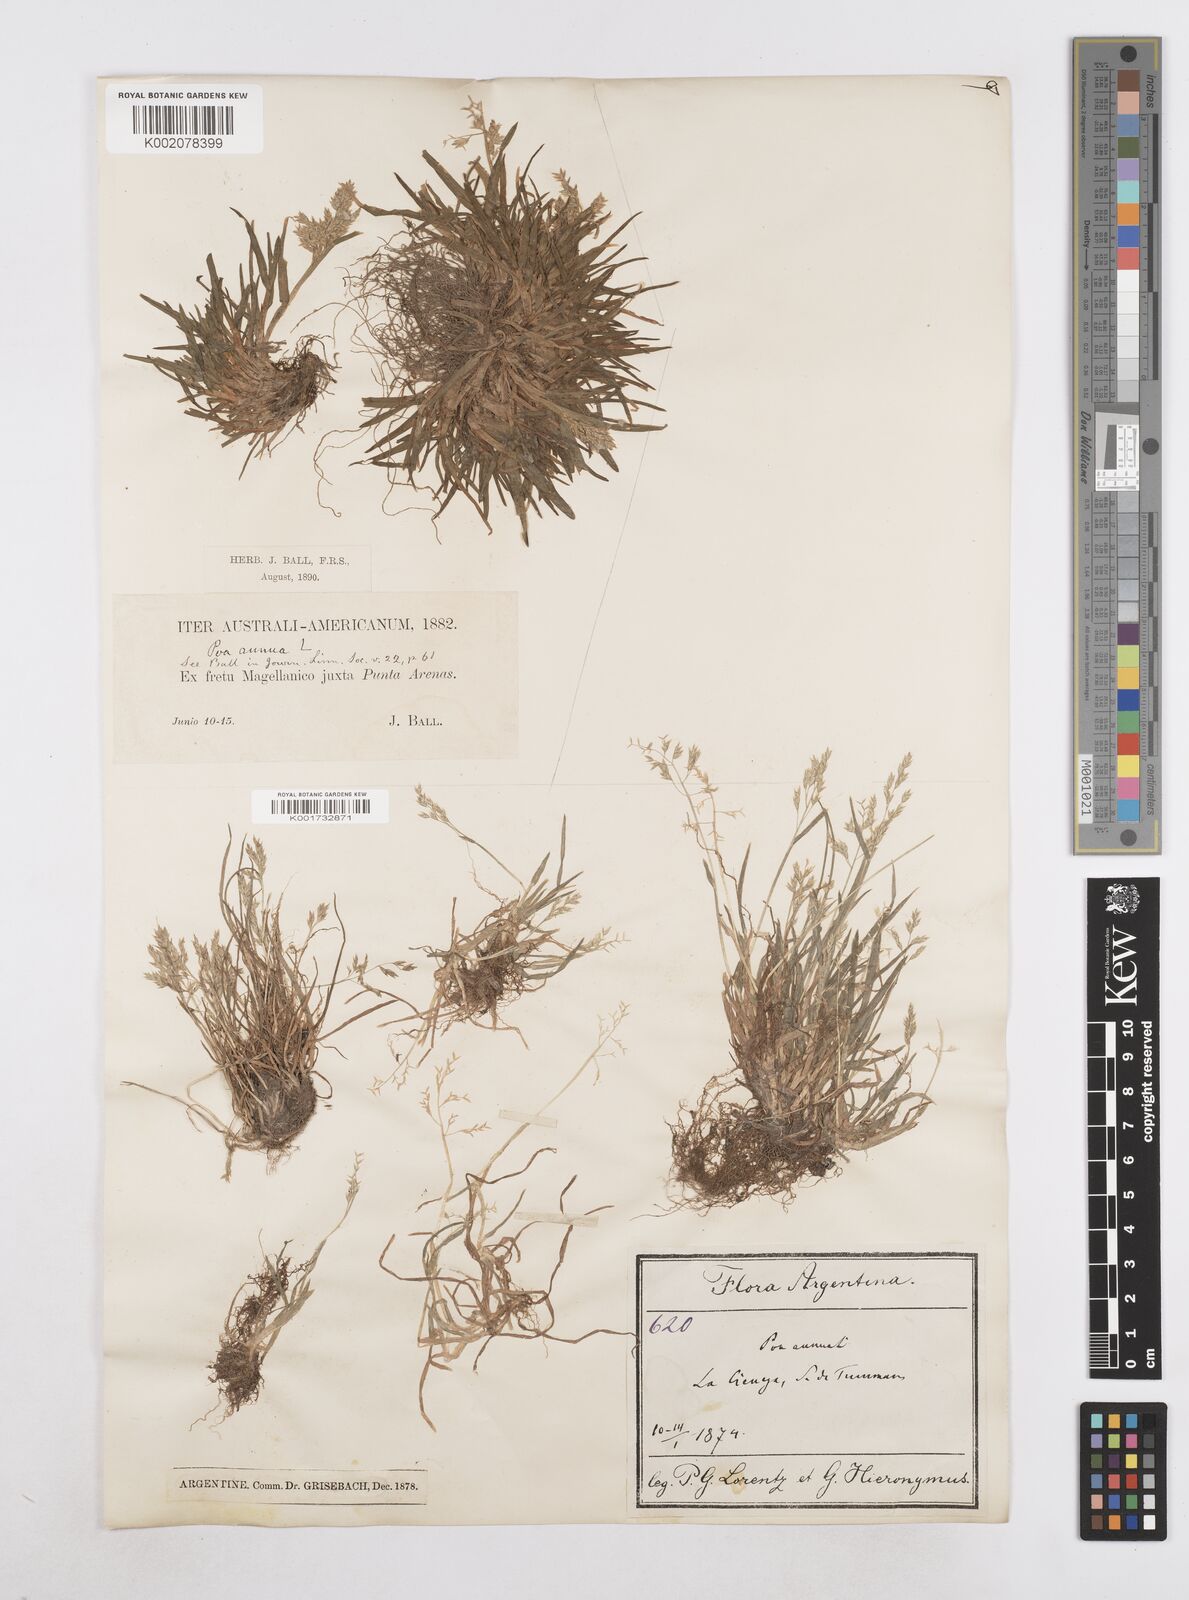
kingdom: Plantae
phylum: Tracheophyta
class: Liliopsida
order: Poales
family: Poaceae
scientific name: Poaceae
